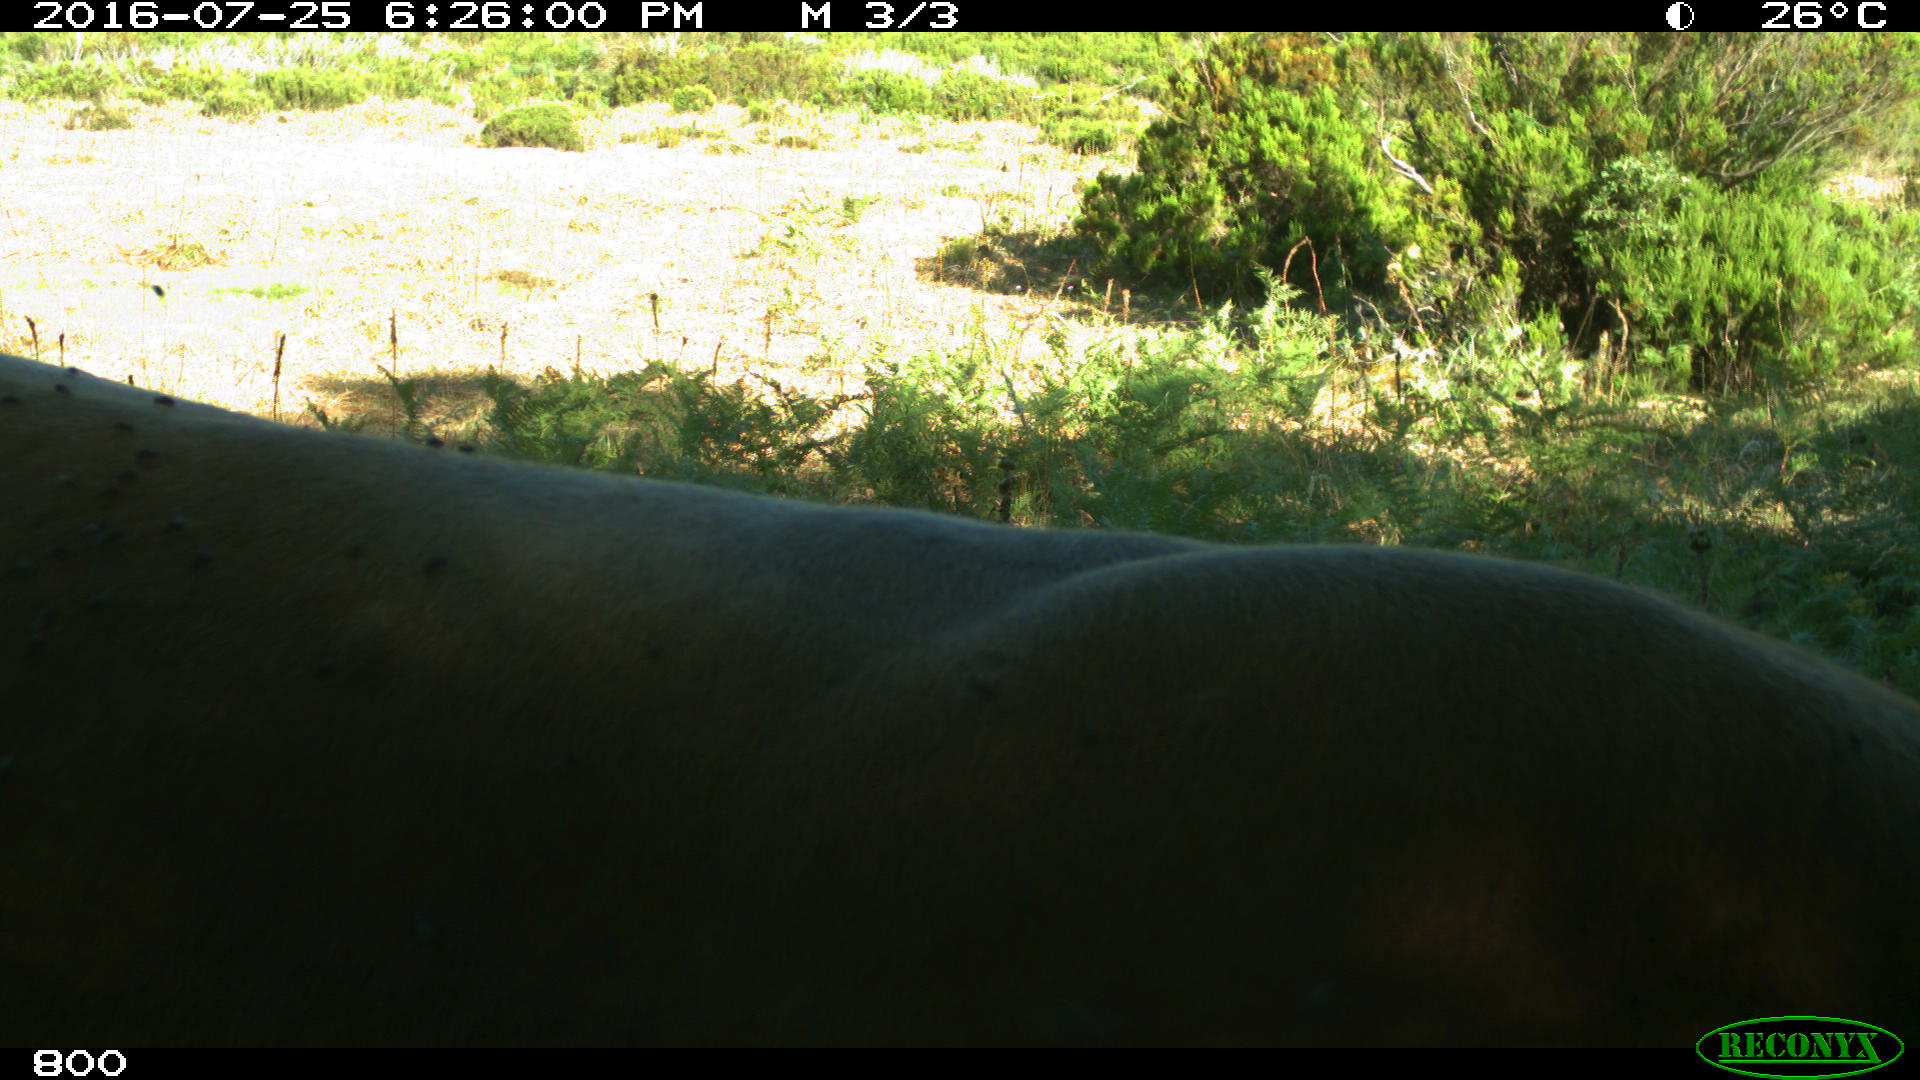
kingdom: Animalia
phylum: Chordata
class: Mammalia
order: Artiodactyla
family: Bovidae
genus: Bos
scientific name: Bos taurus
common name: Domesticated cattle
